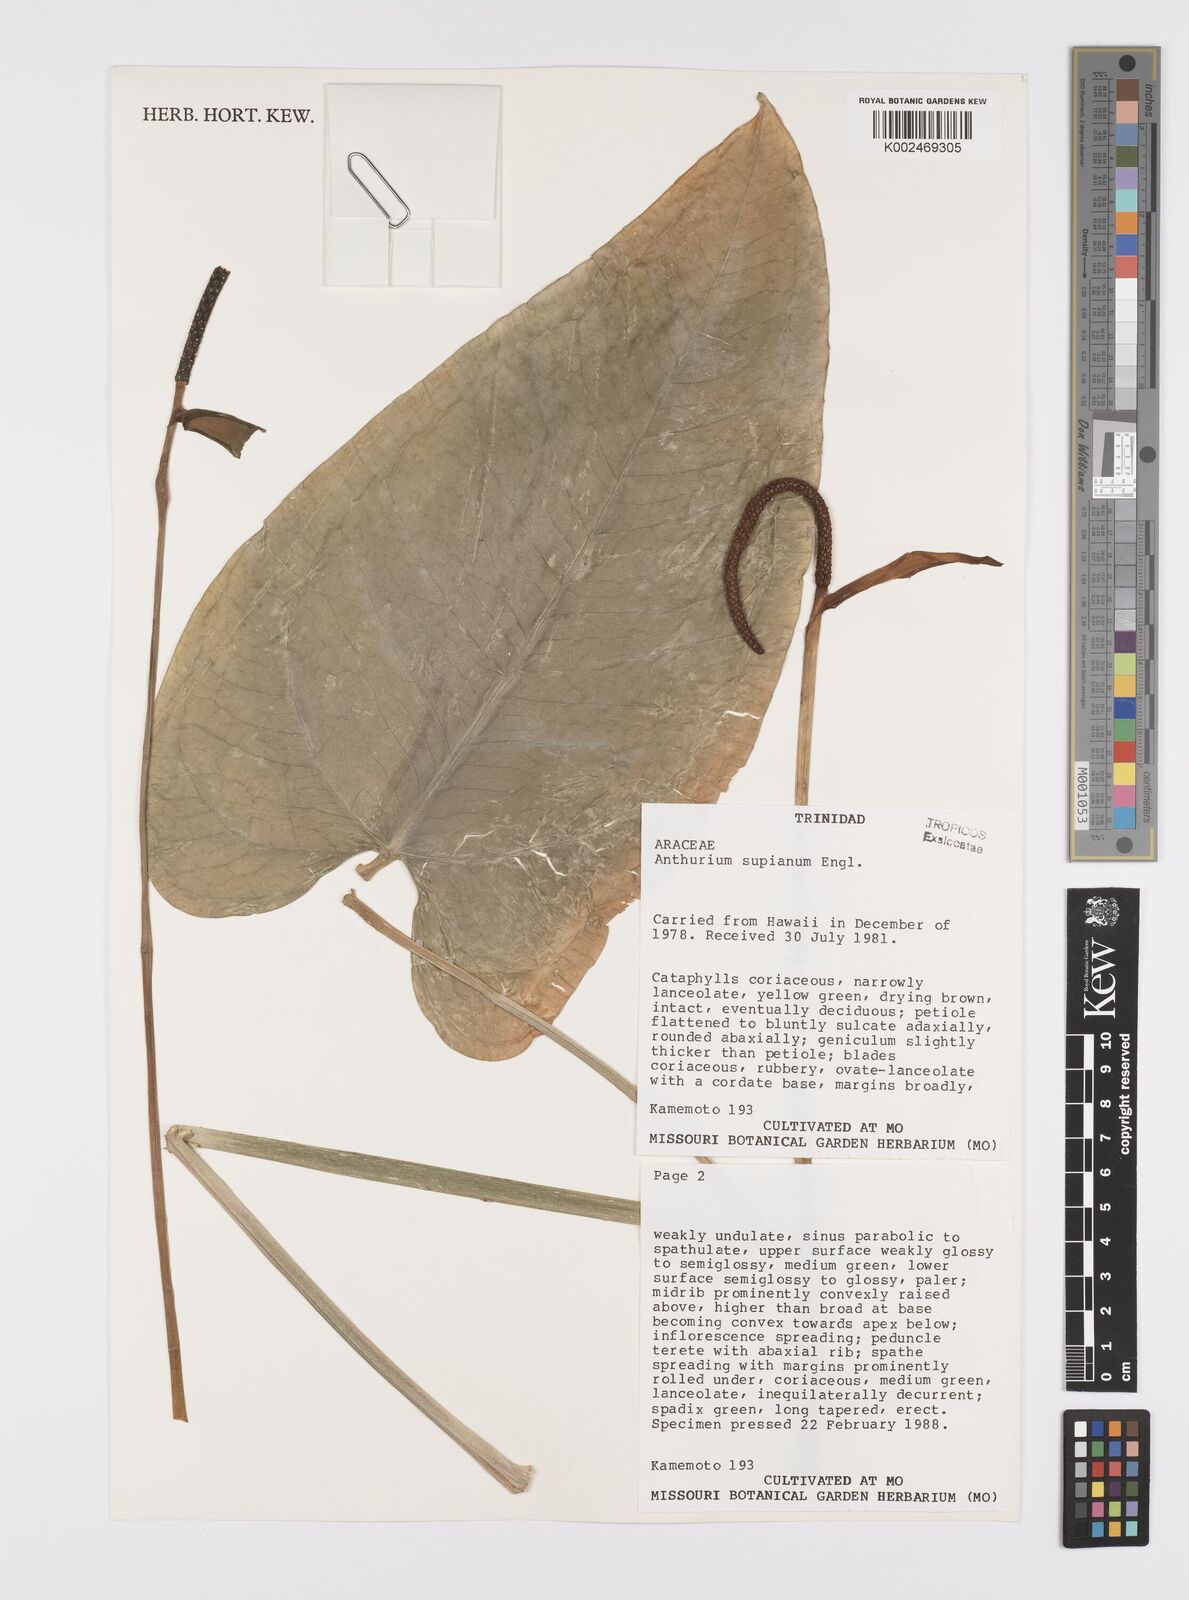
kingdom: Plantae
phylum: Tracheophyta
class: Liliopsida
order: Alismatales
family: Araceae
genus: Anthurium
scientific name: Anthurium supianum
